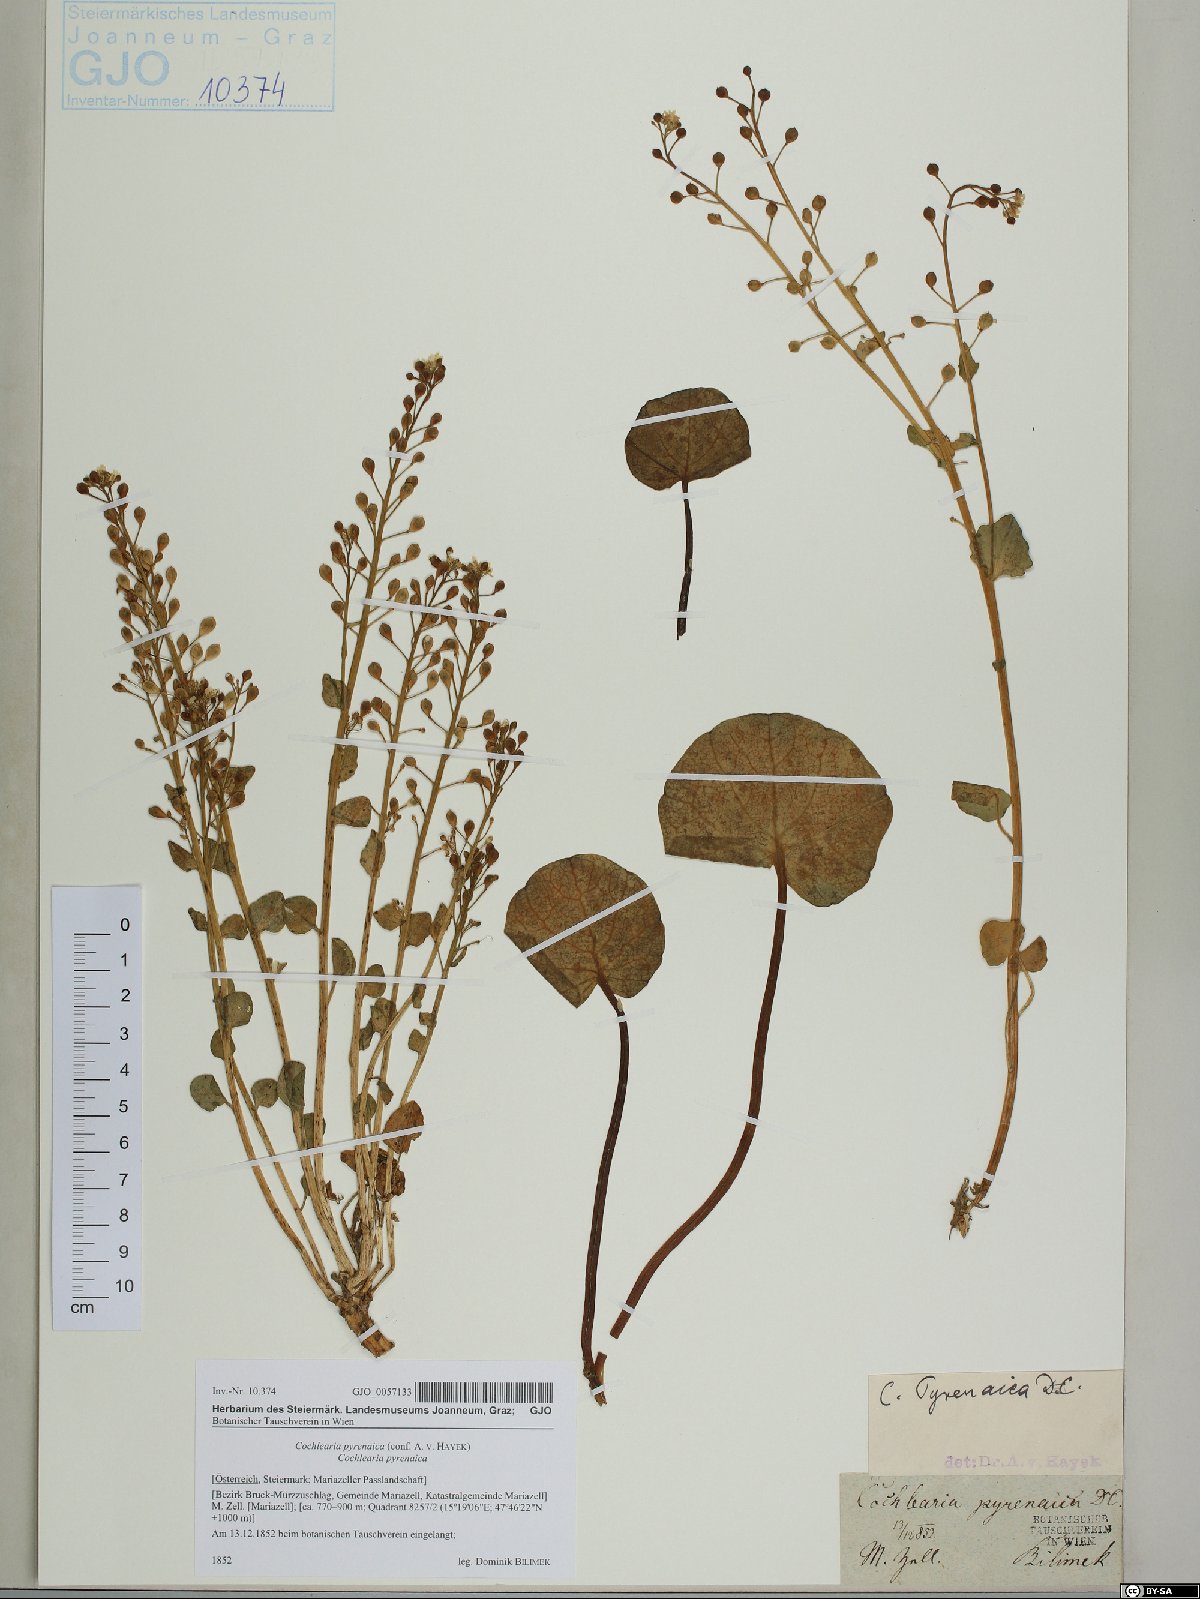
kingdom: Plantae
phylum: Tracheophyta
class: Magnoliopsida
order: Brassicales
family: Brassicaceae
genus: Cochlearia
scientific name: Cochlearia pyrenaica
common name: Upland scurvy-grass
